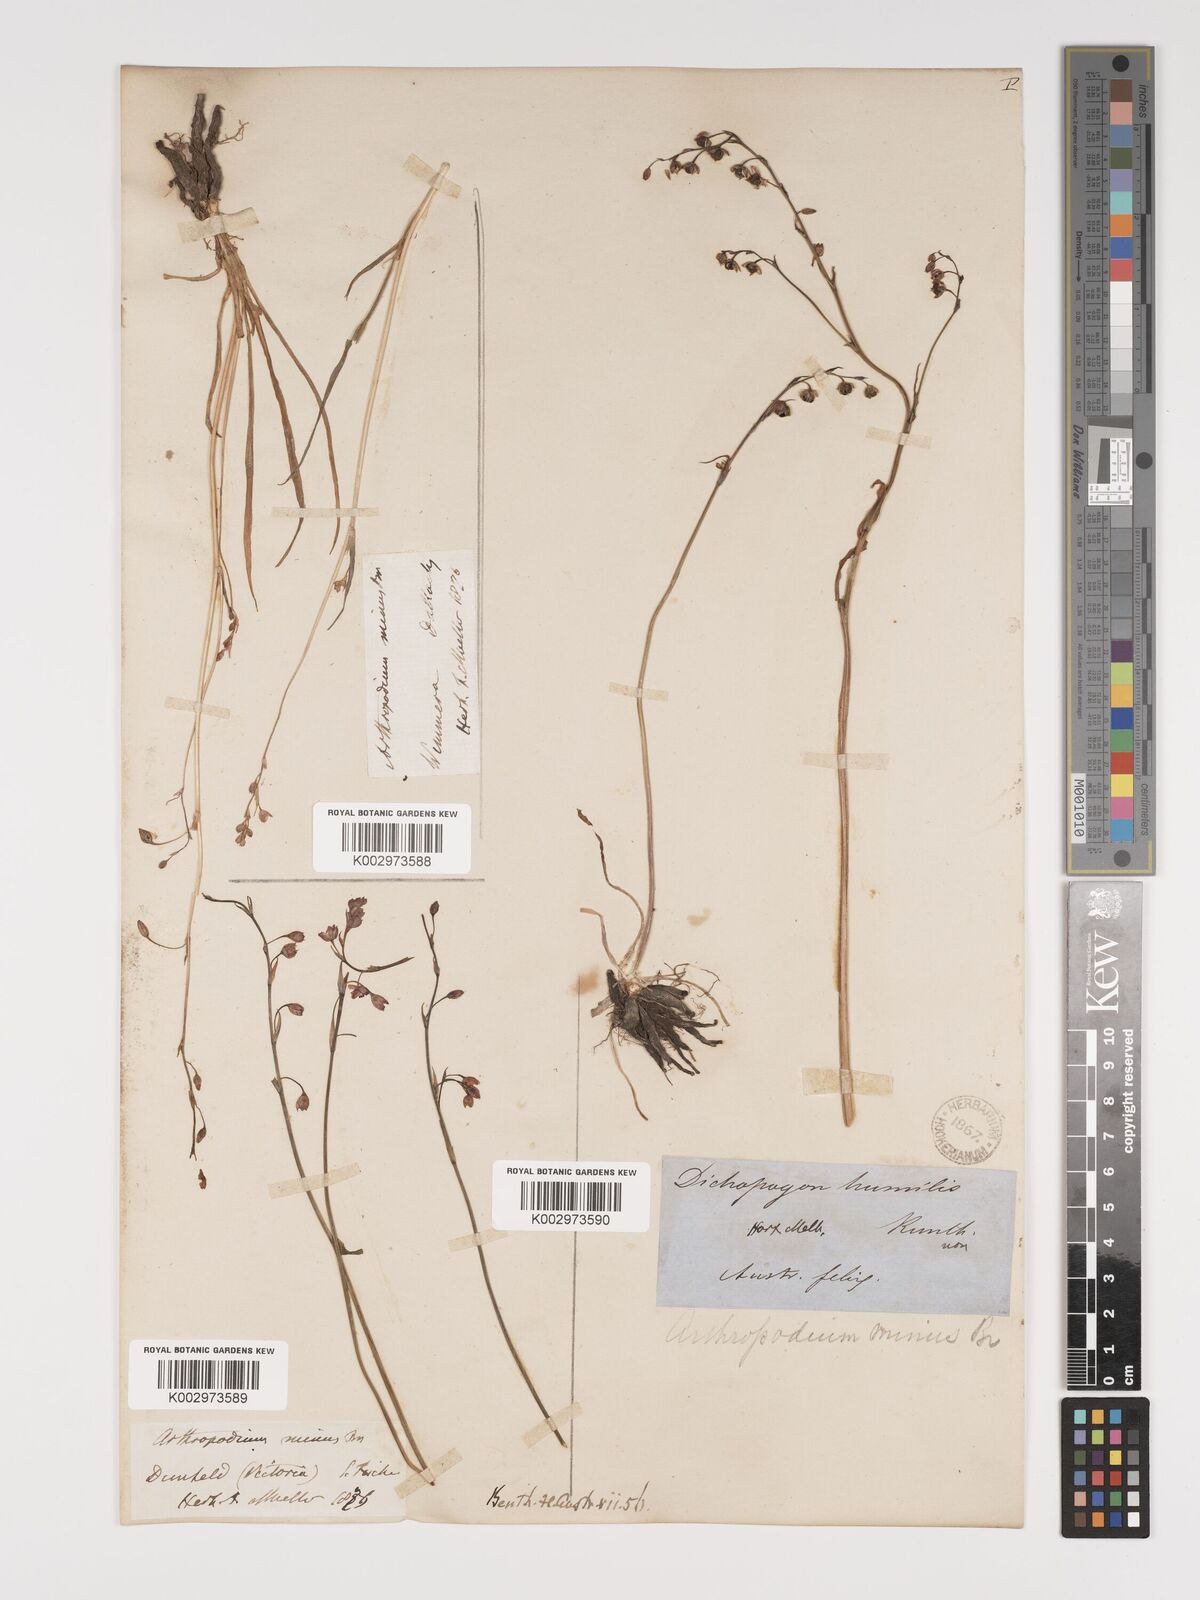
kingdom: Plantae
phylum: Tracheophyta
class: Liliopsida
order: Asparagales
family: Asparagaceae
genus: Arthropodium
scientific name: Arthropodium minus
